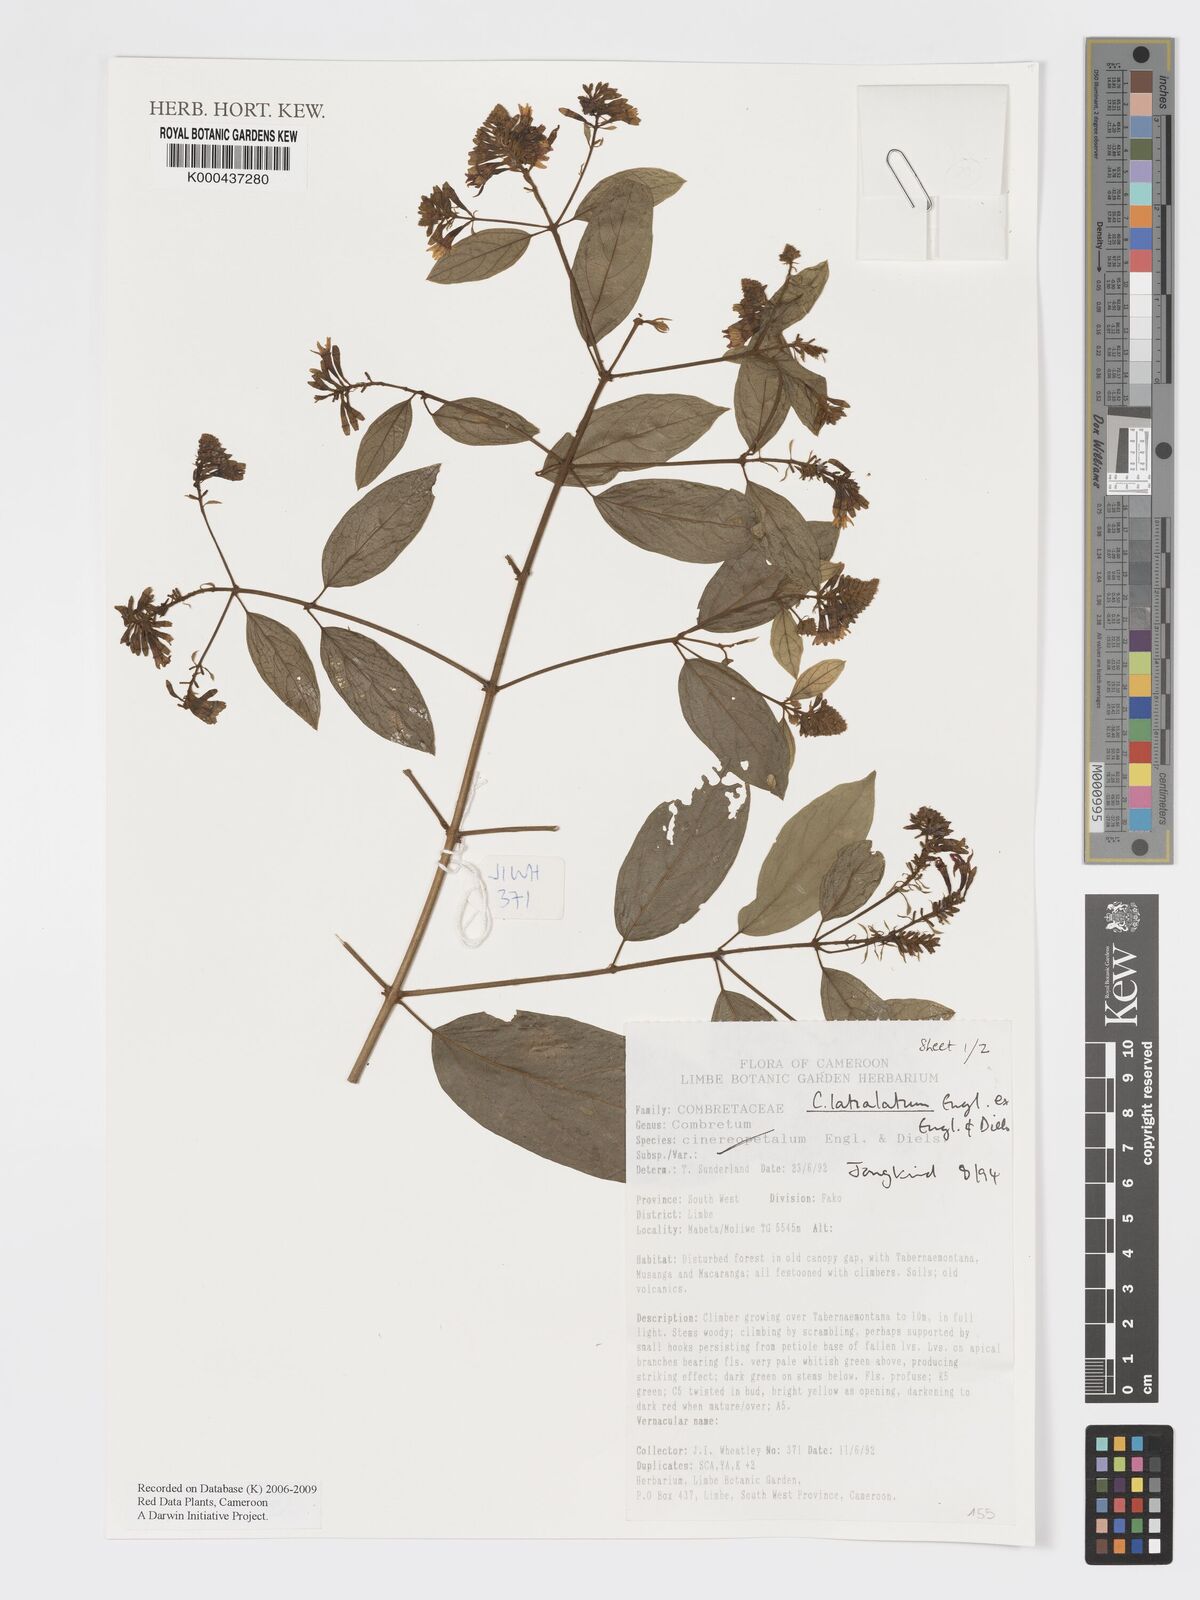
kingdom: Plantae
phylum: Tracheophyta
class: Magnoliopsida
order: Myrtales
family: Combretaceae
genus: Combretum
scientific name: Combretum latialatum
